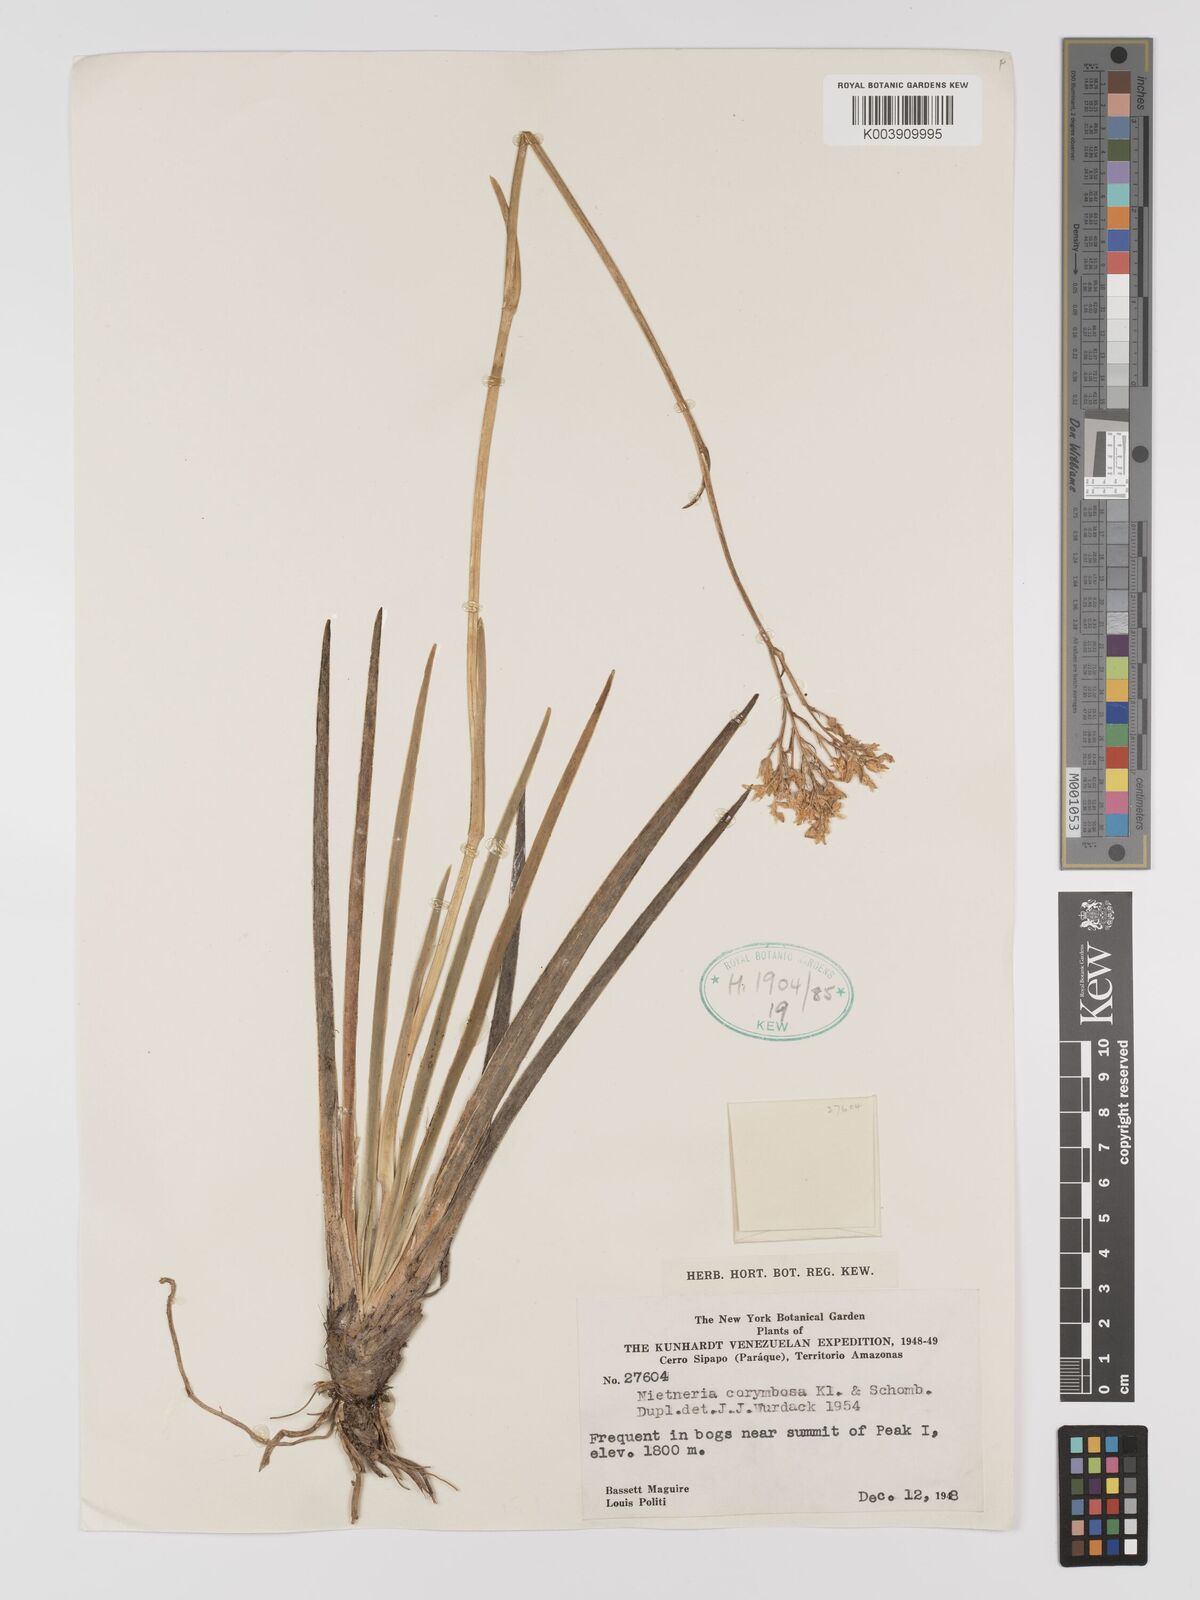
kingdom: Plantae
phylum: Tracheophyta
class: Liliopsida
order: Dioscoreales
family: Nartheciaceae
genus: Nietneria
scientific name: Nietneria corymbosa
